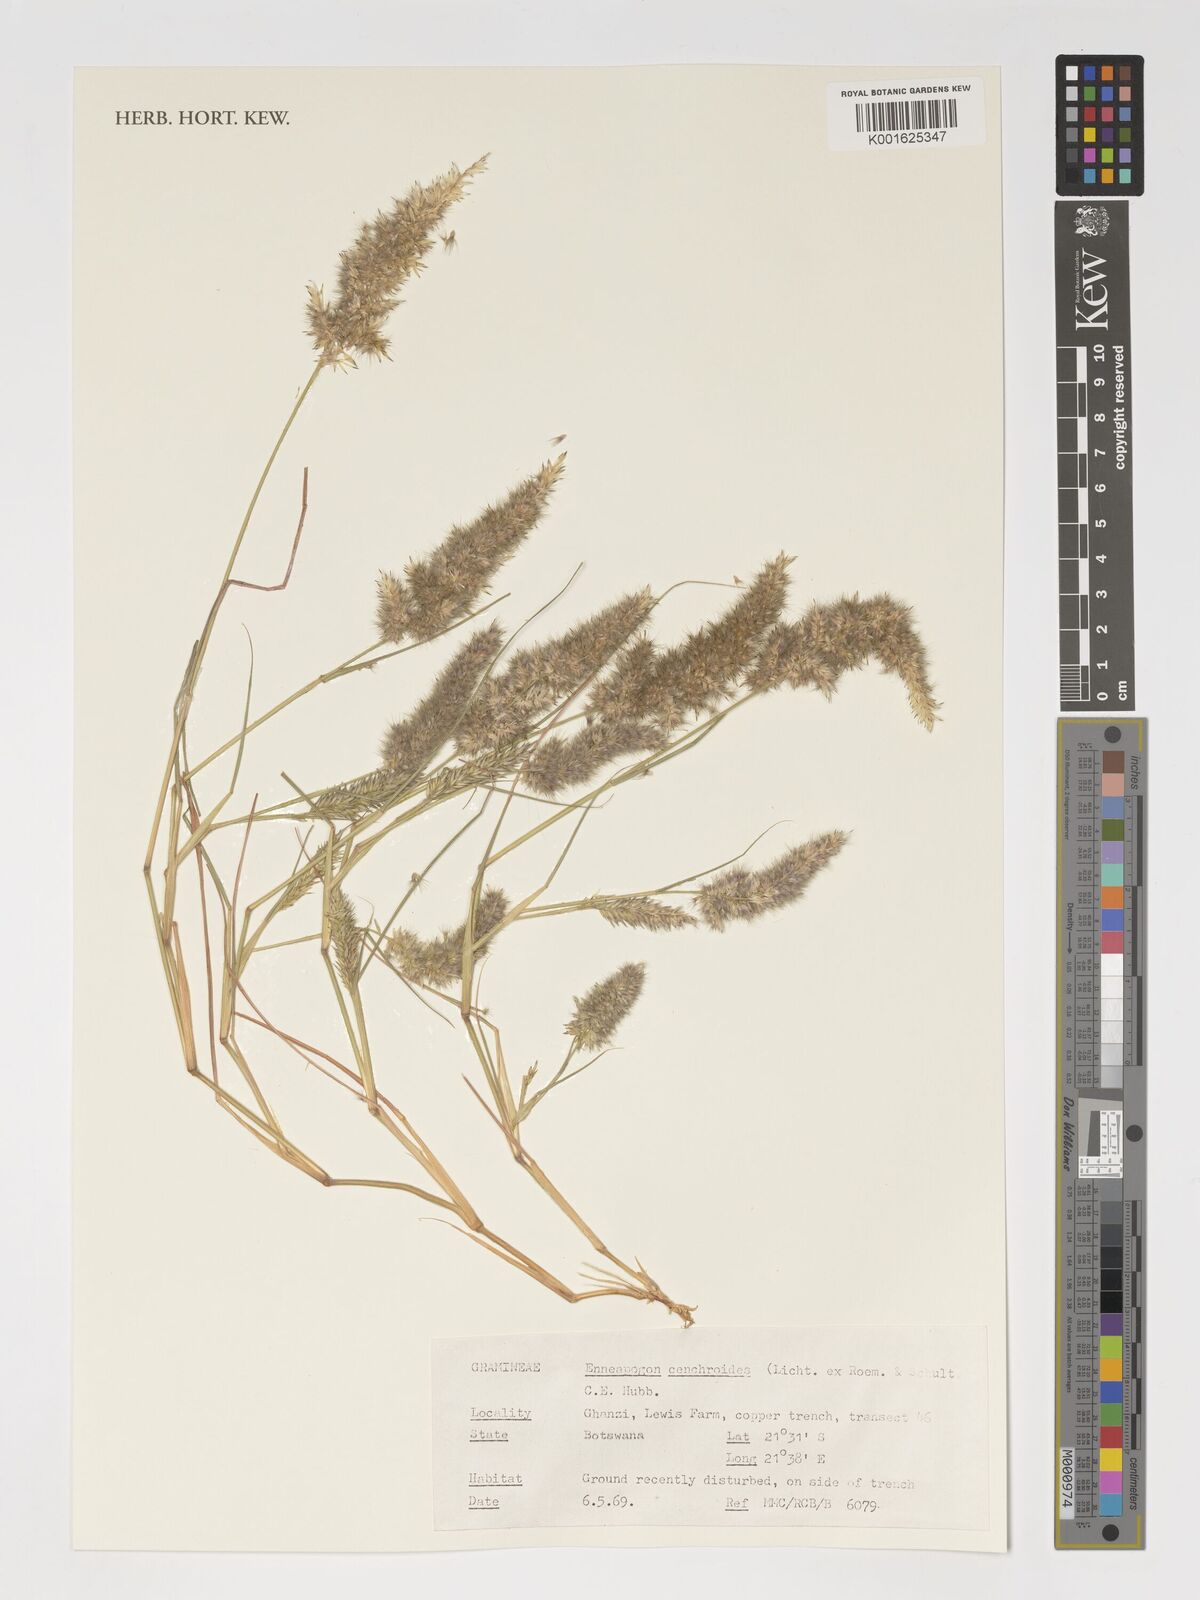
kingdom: Plantae
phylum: Tracheophyta
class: Liliopsida
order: Poales
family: Poaceae
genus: Enneapogon
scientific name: Enneapogon cenchroides
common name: Soft feather pappusgrass
